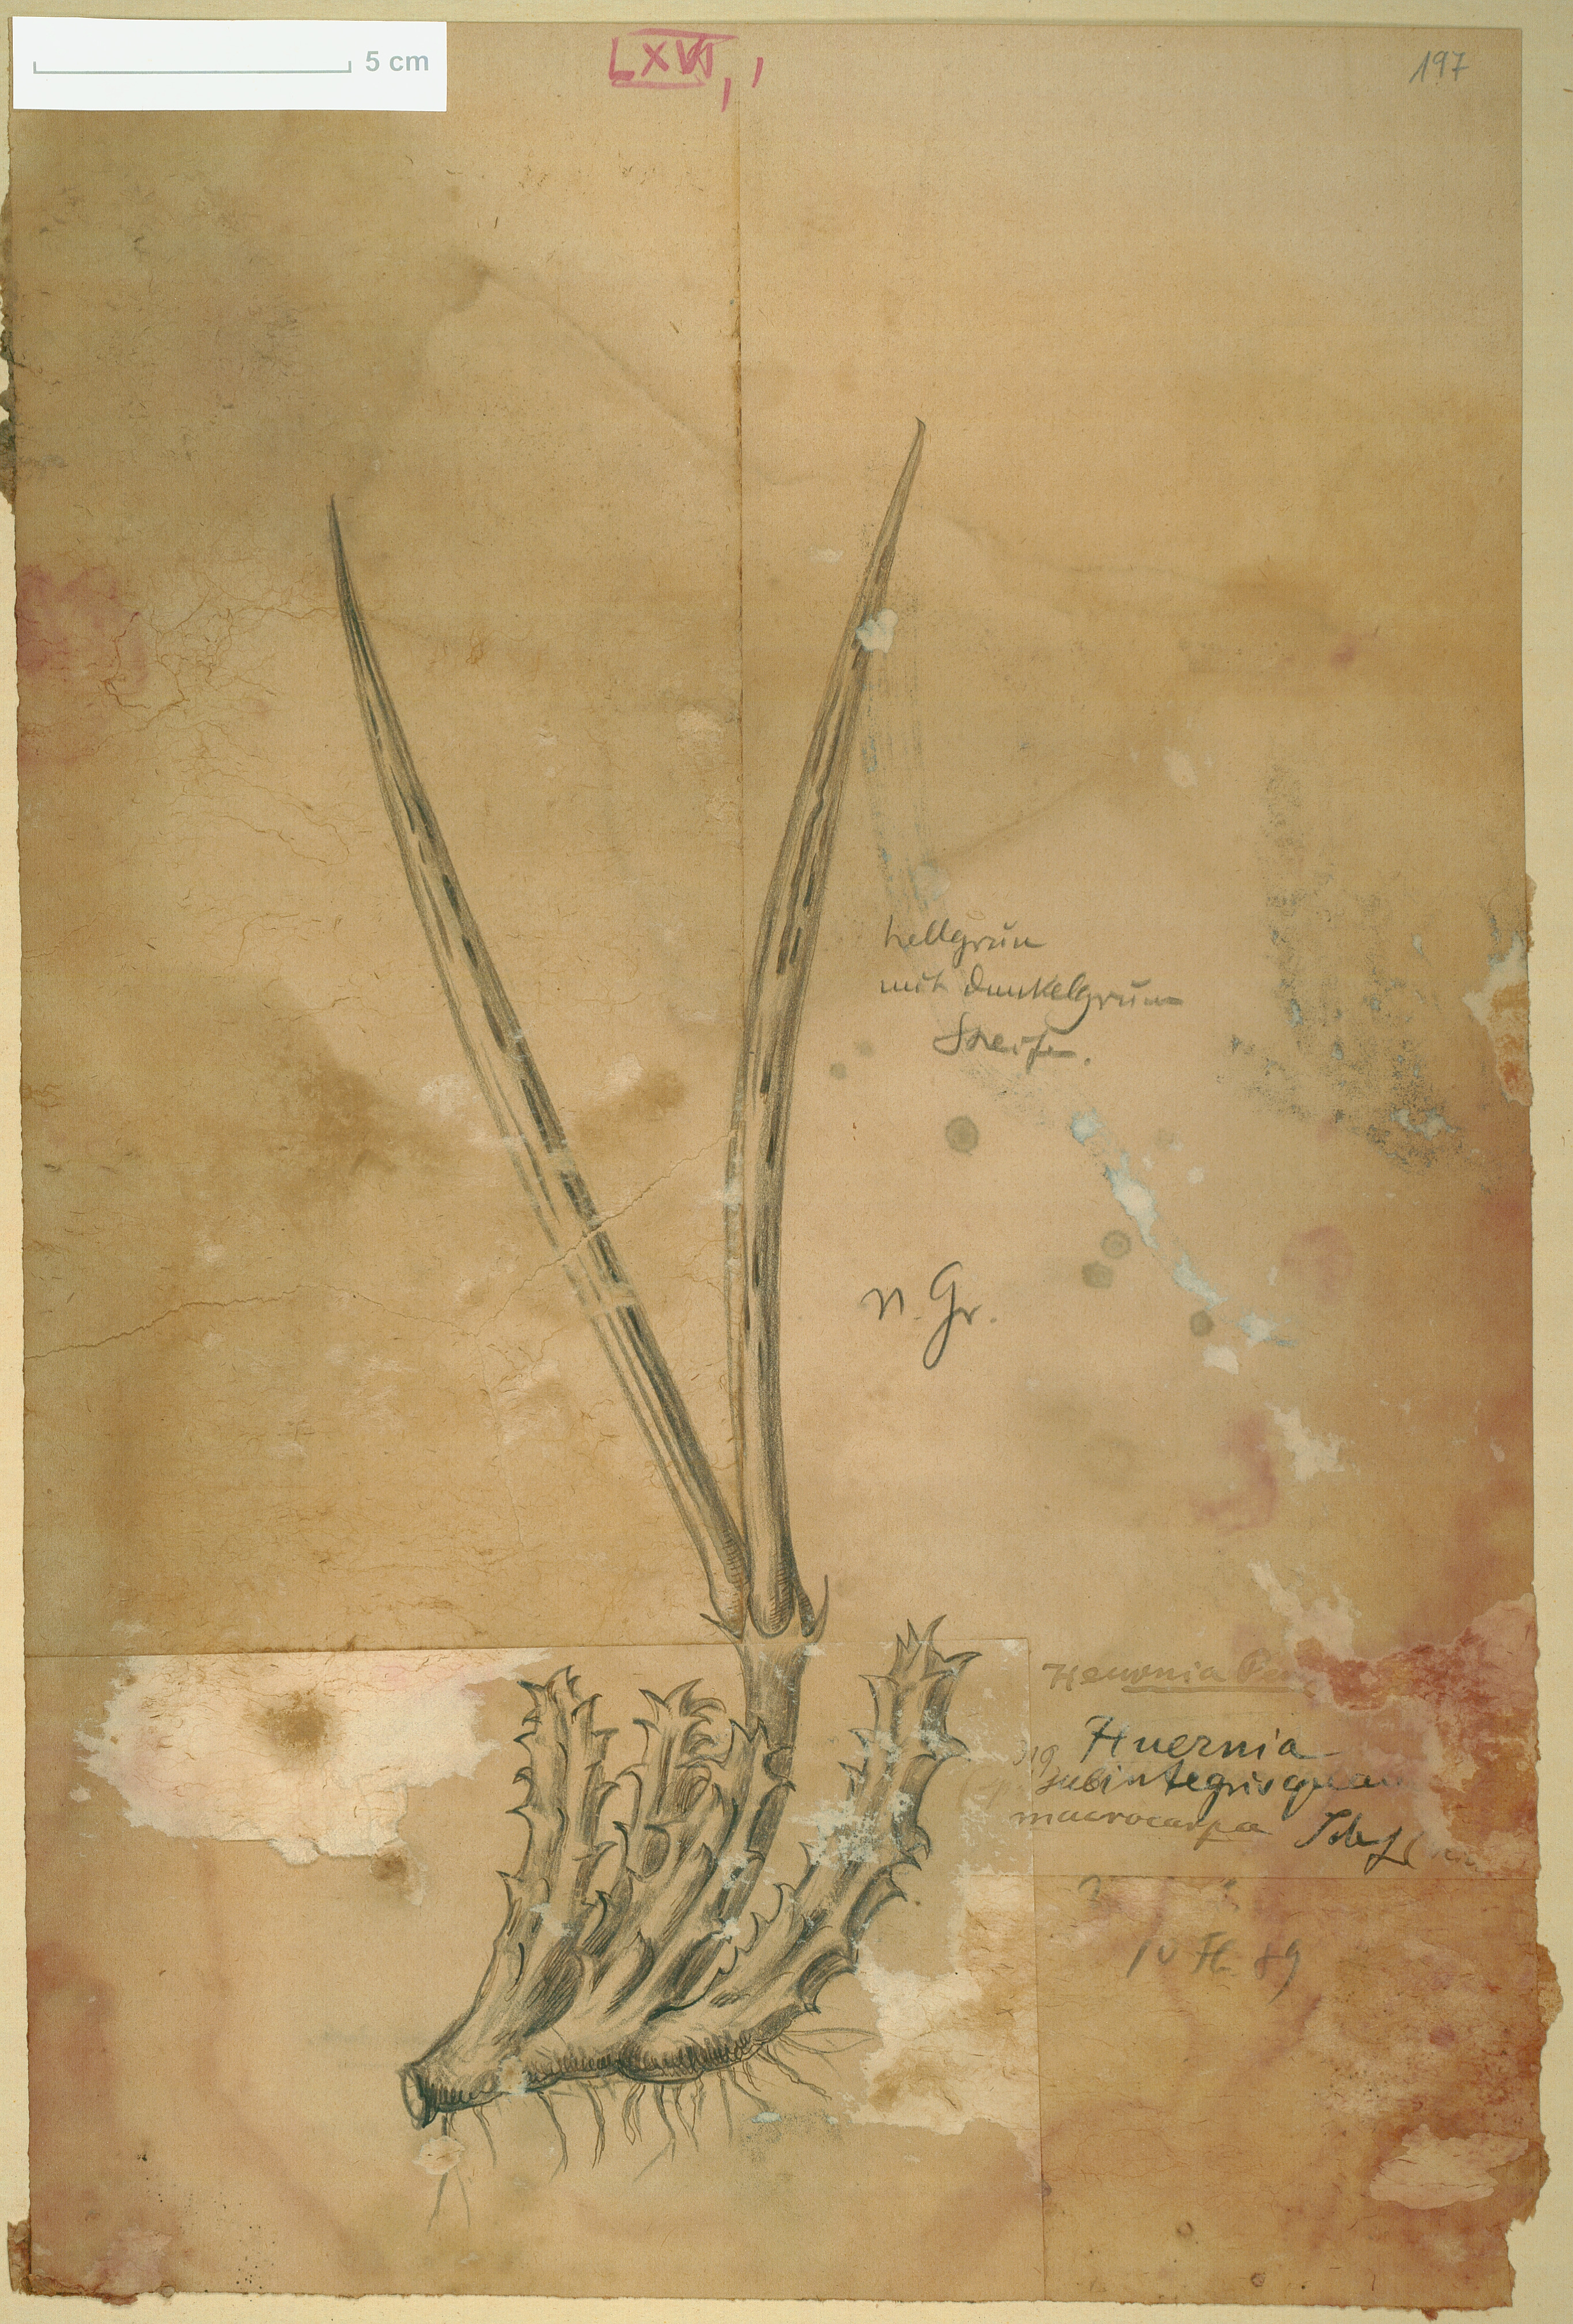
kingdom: Plantae
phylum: Tracheophyta
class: Magnoliopsida
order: Gentianales
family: Apocynaceae
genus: Ceropegia
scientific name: Ceropegia macrocarpa
